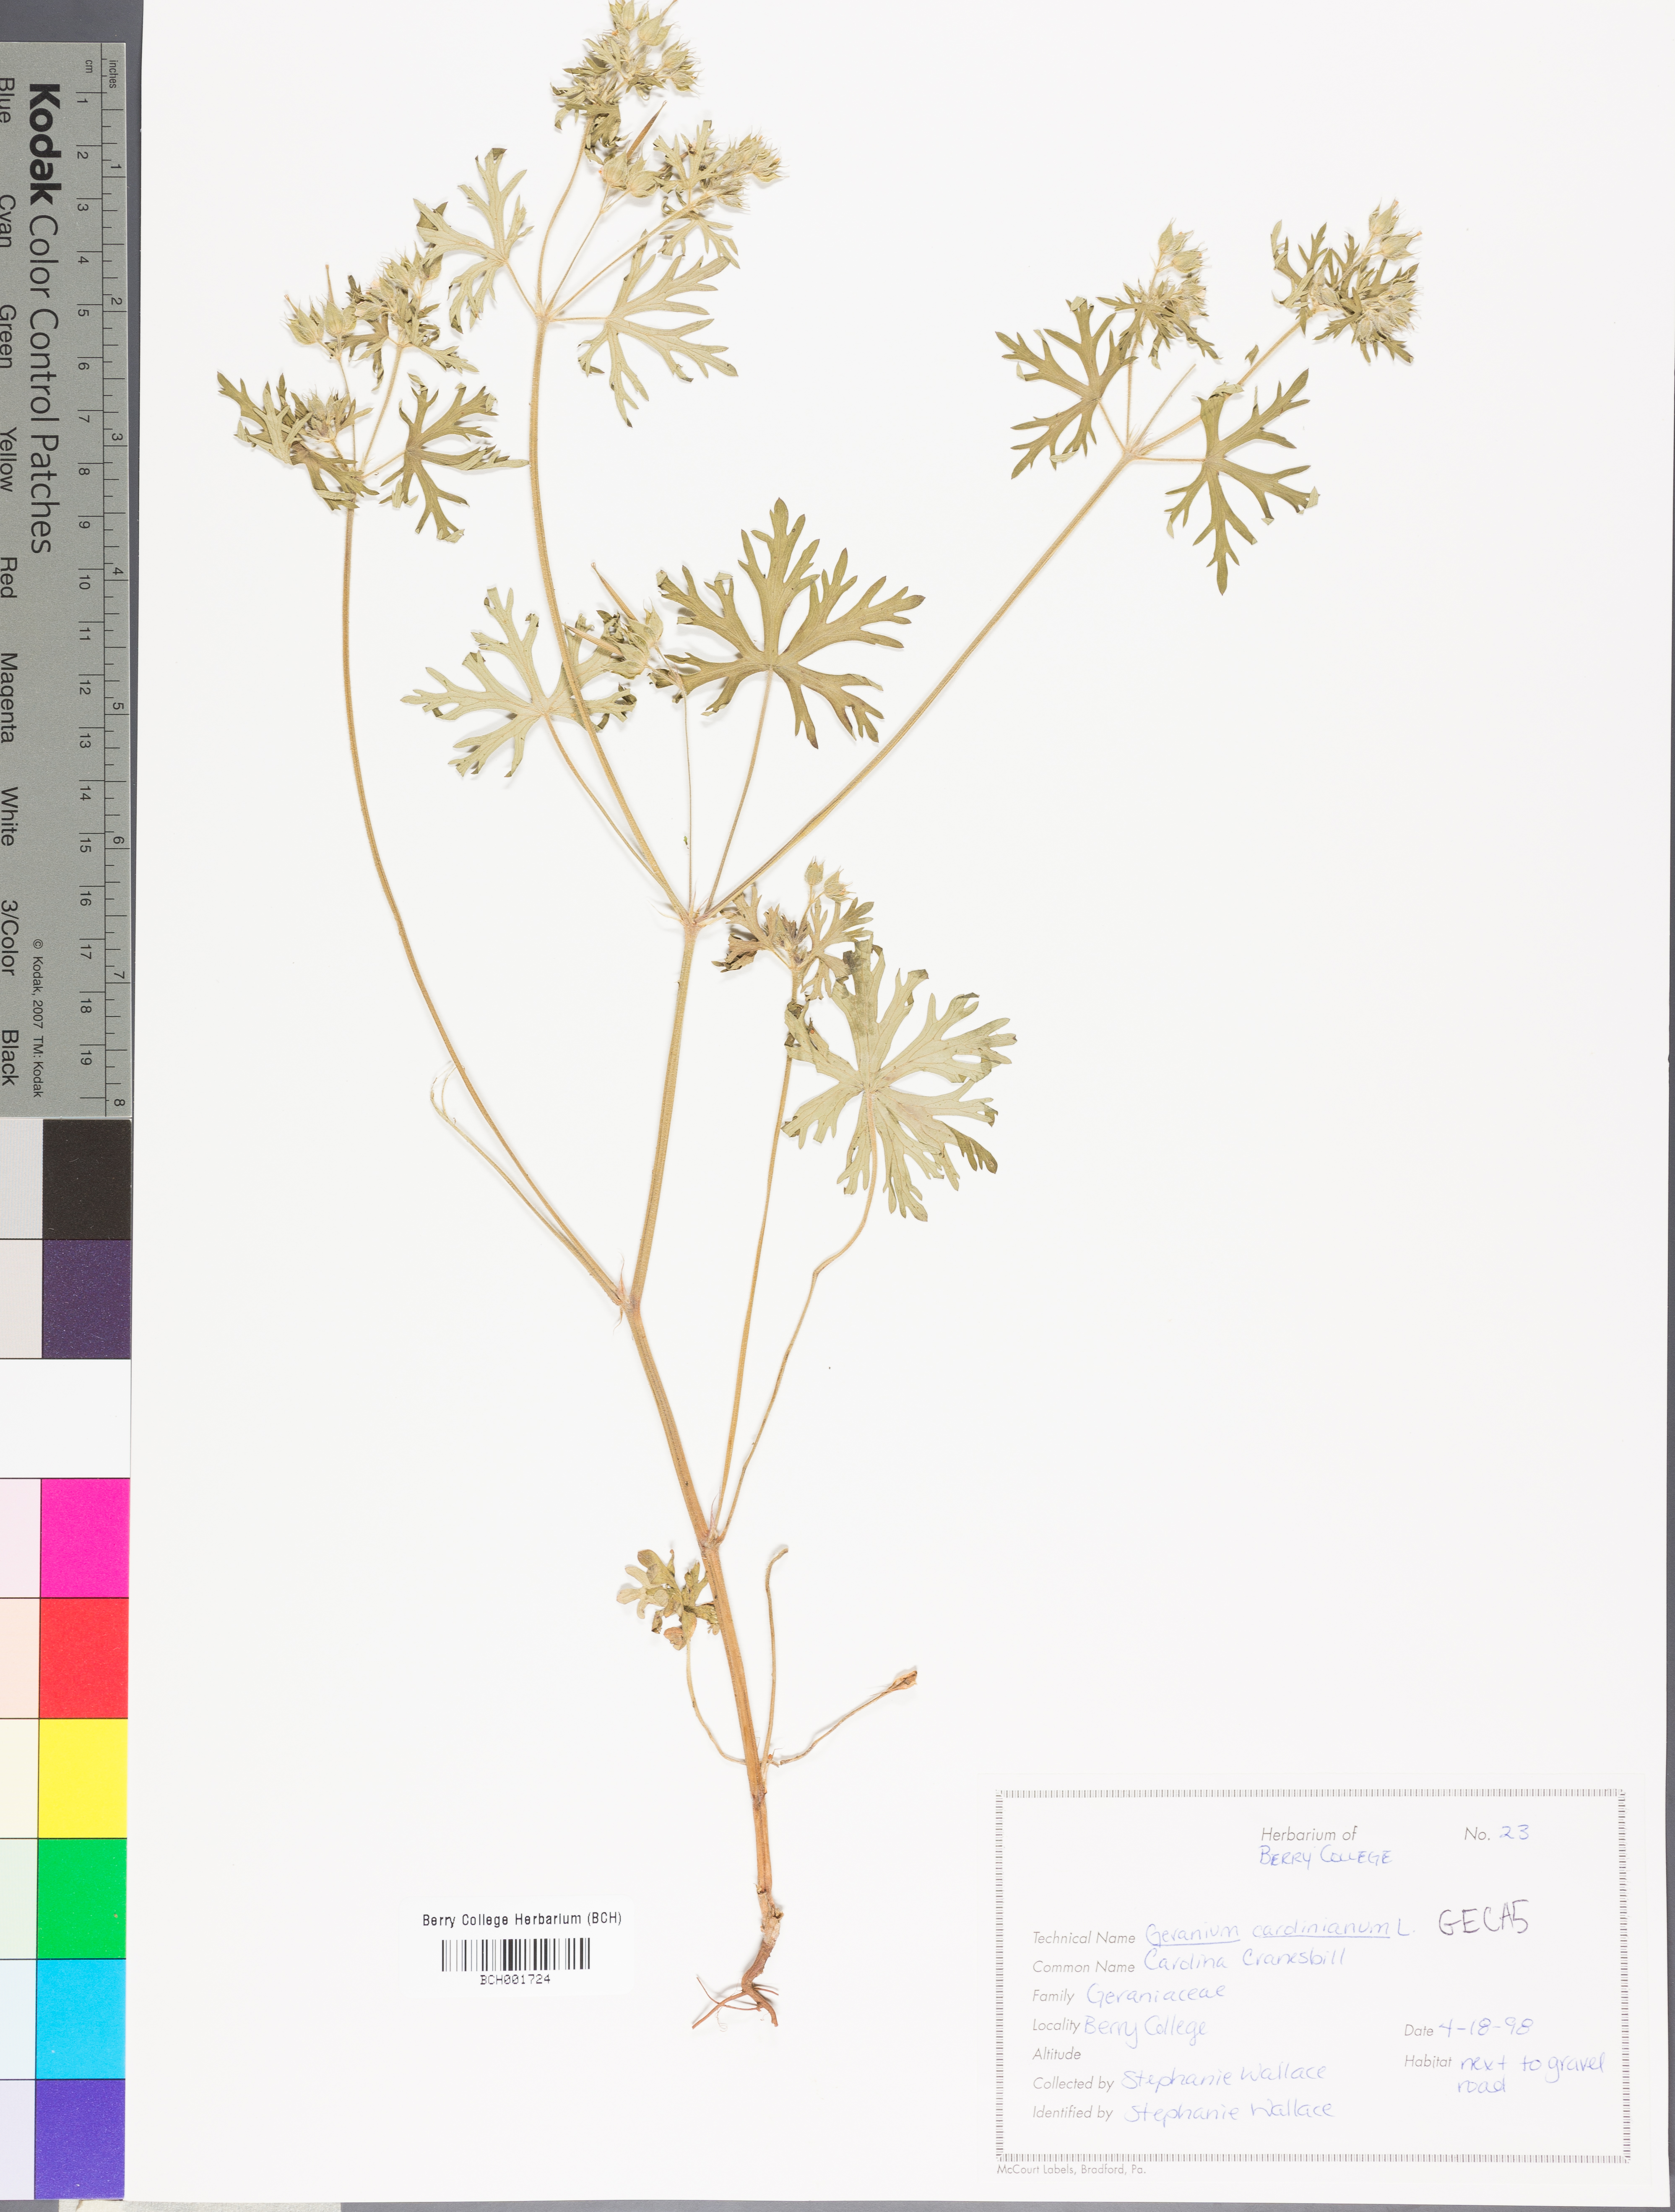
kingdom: Plantae
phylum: Tracheophyta
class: Magnoliopsida
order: Geraniales
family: Geraniaceae
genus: Geranium
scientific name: Geranium carolinianum
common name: Carolina crane's-bill
